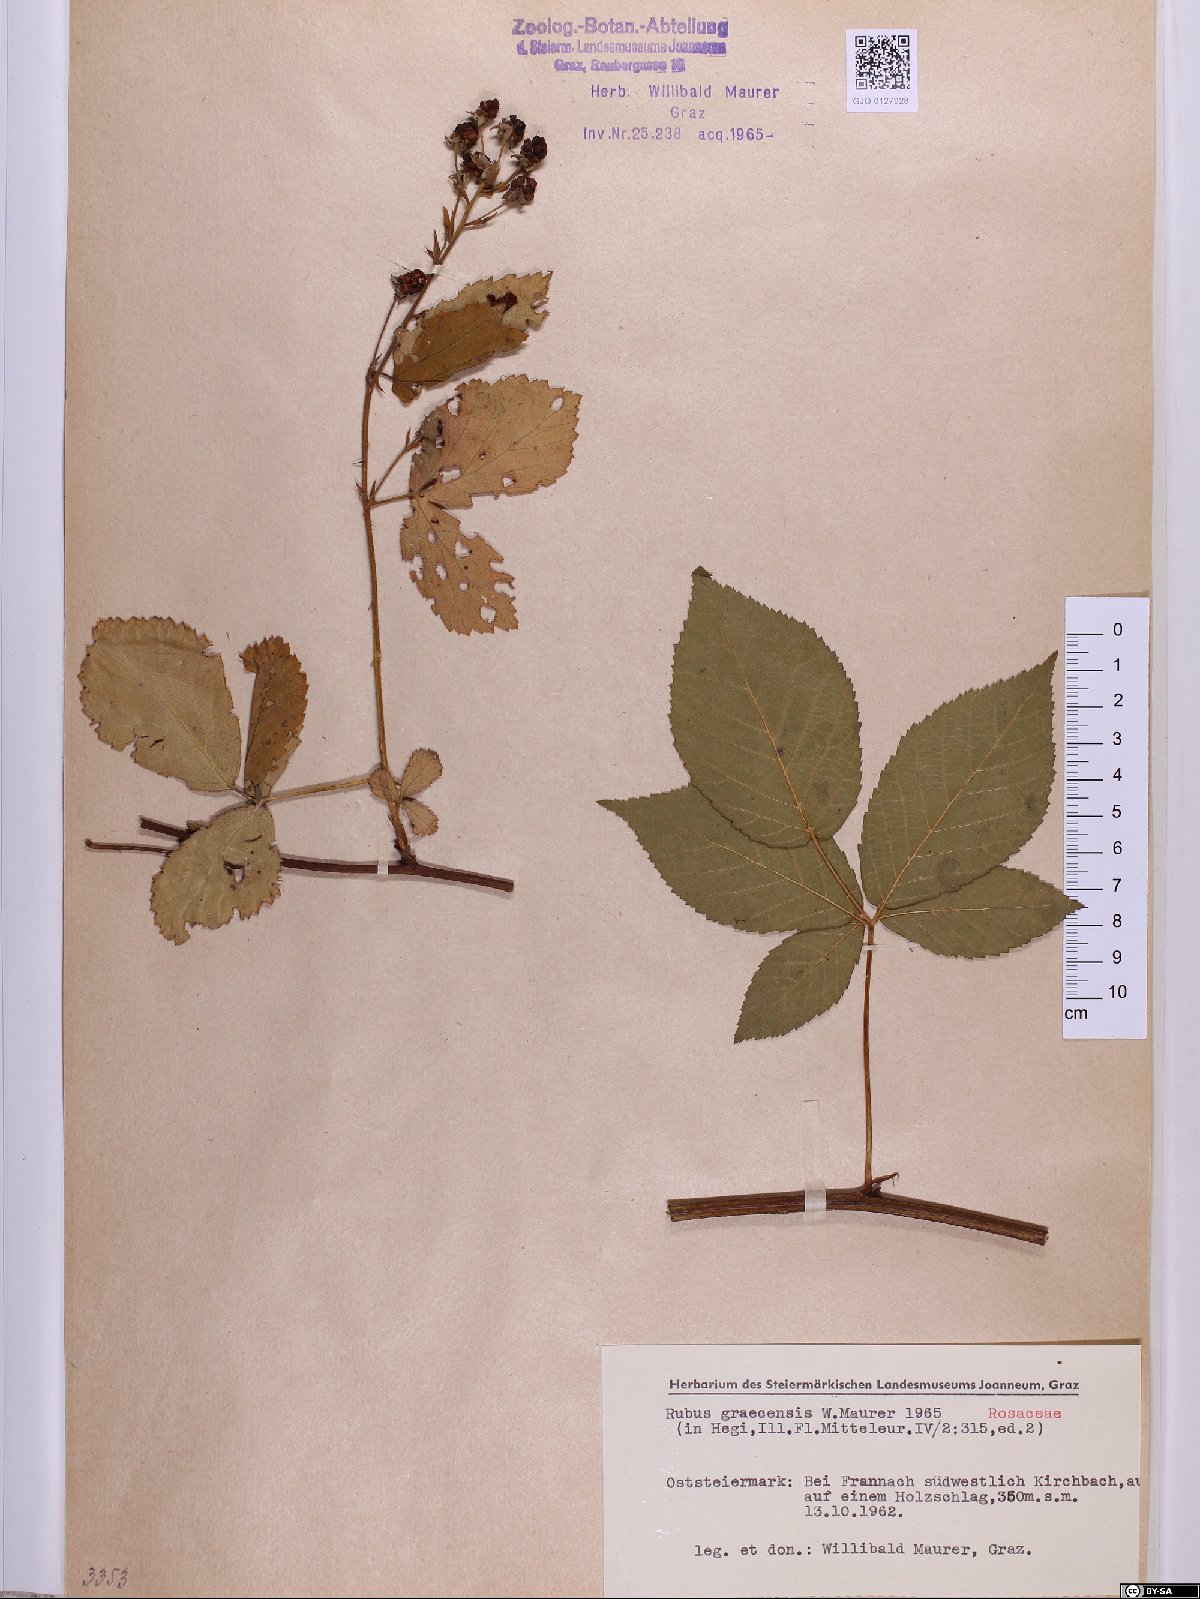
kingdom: Plantae
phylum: Tracheophyta
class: Magnoliopsida
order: Rosales
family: Rosaceae
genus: Rubus
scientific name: Rubus graecensis
